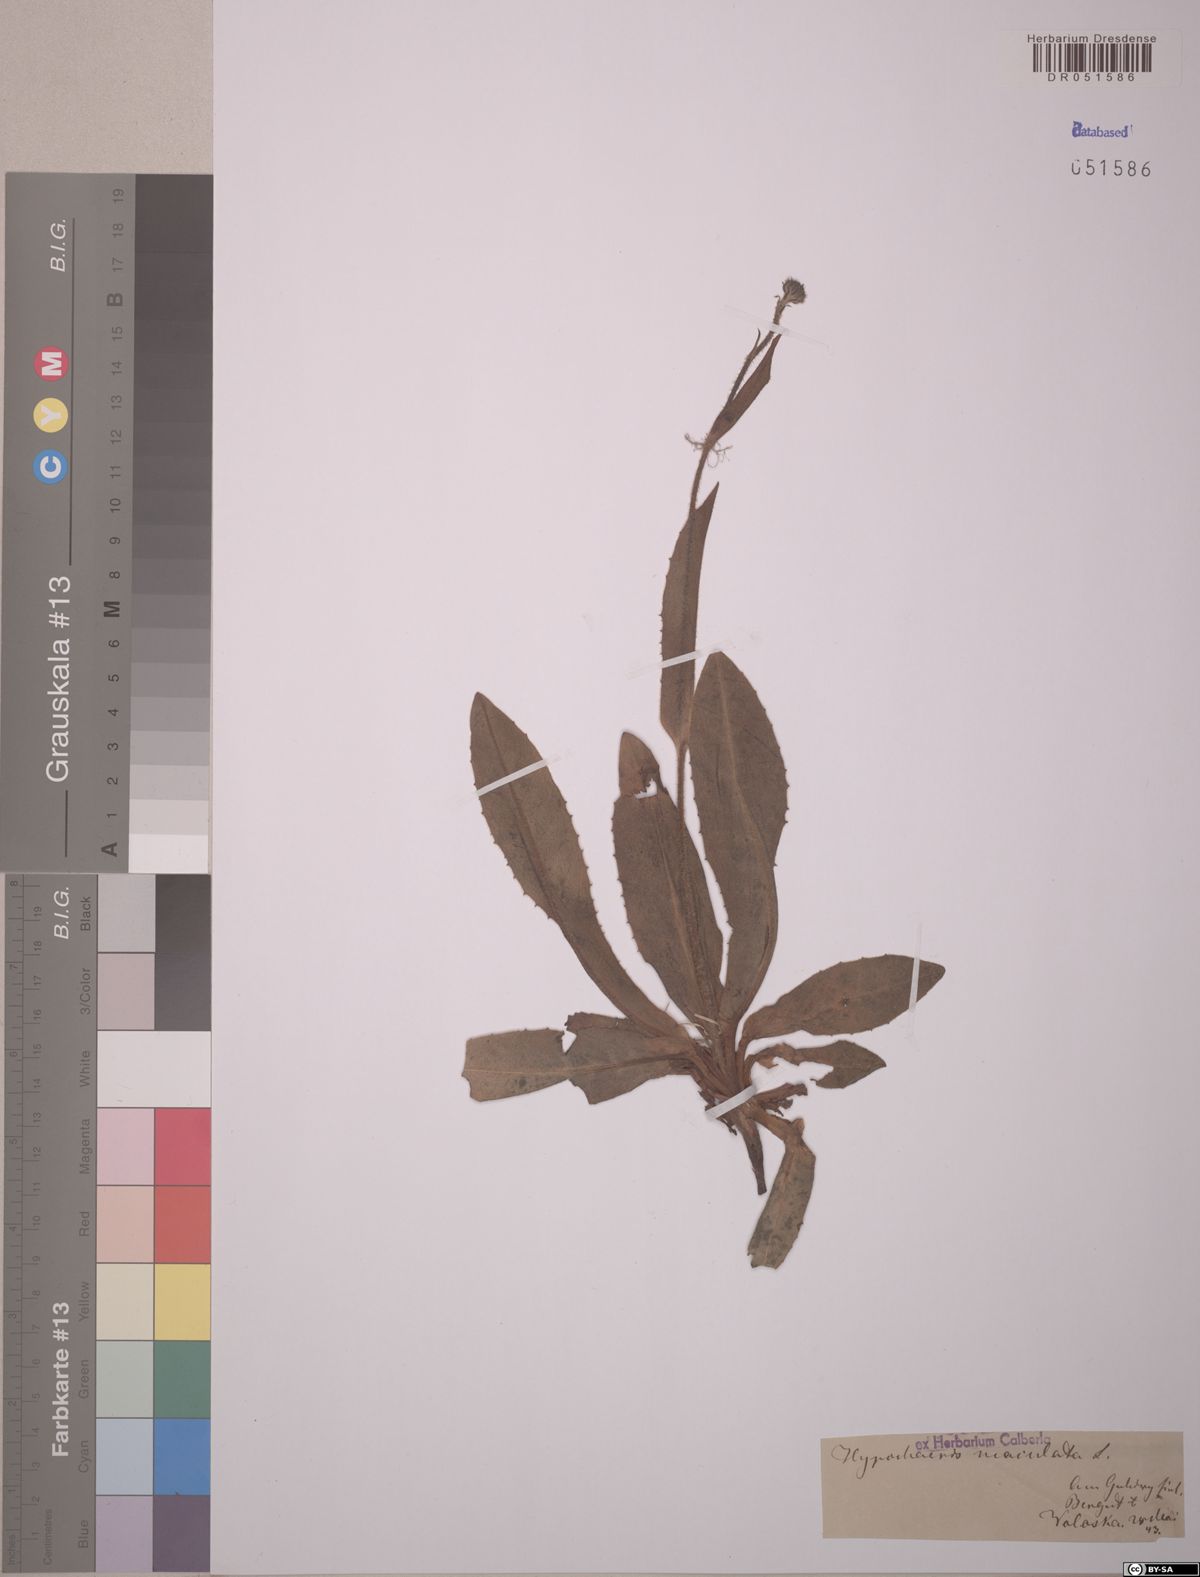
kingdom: Plantae
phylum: Tracheophyta
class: Magnoliopsida
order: Asterales
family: Asteraceae
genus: Trommsdorffia
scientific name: Trommsdorffia maculata
